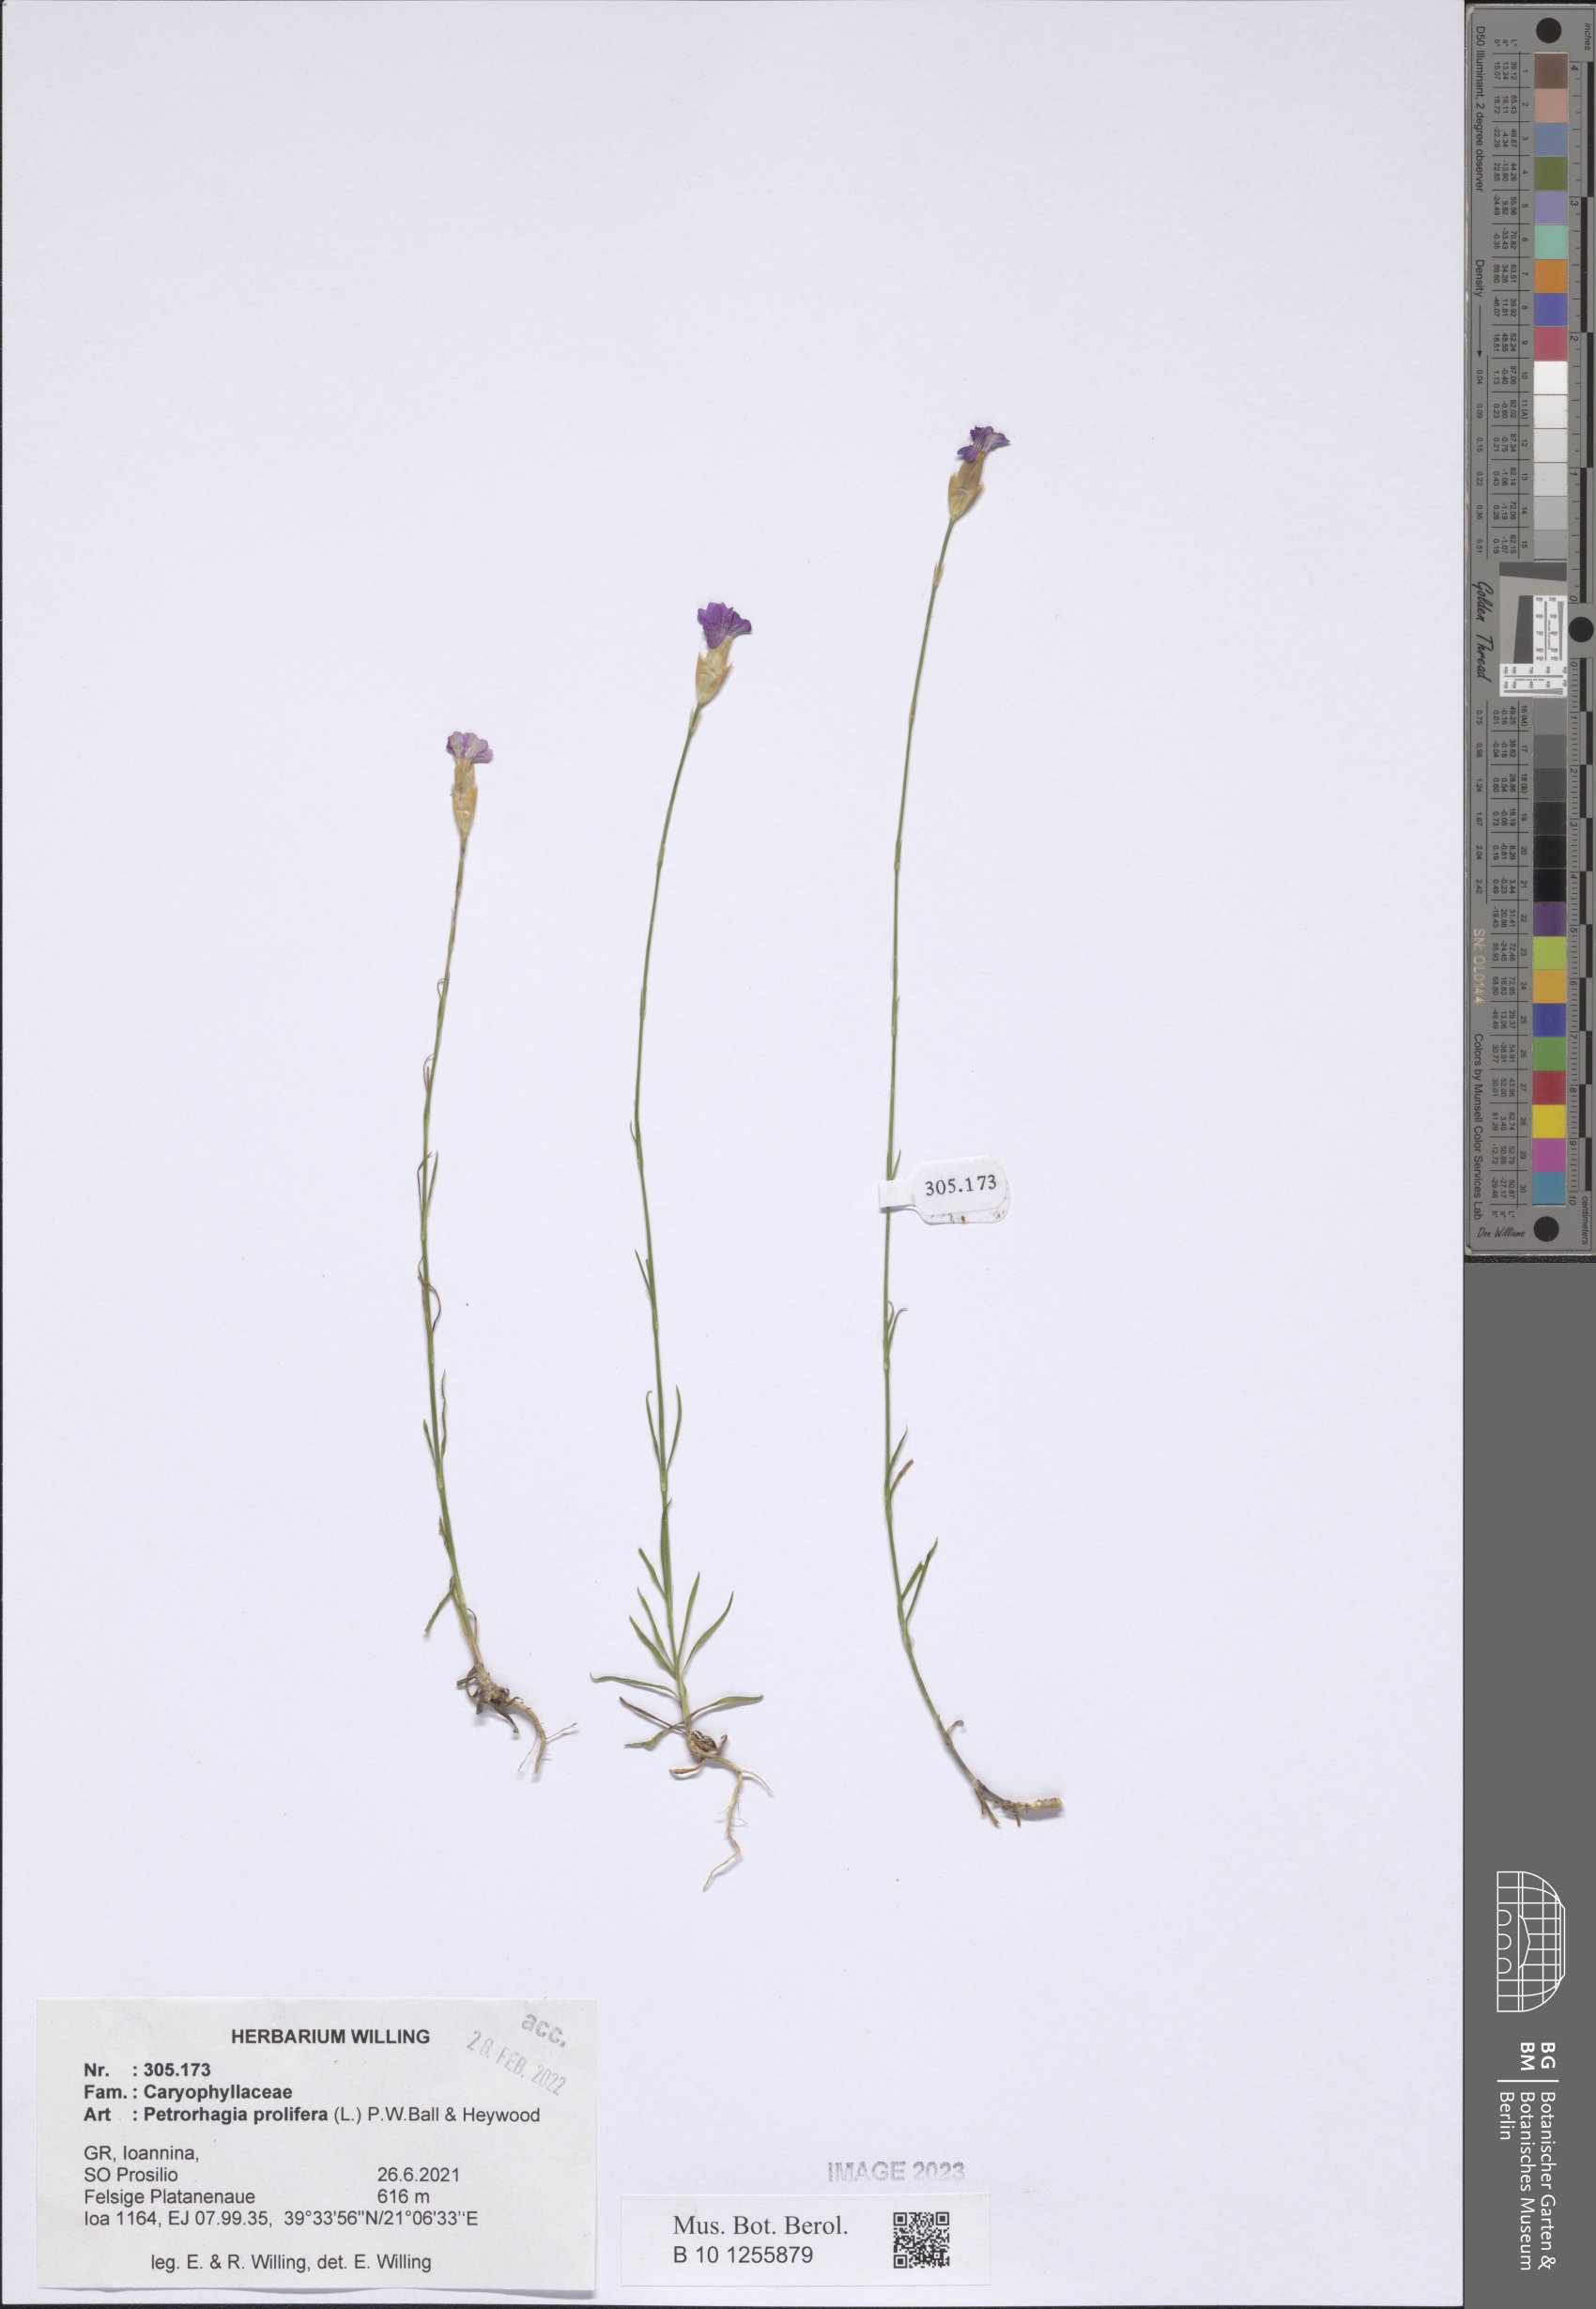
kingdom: Plantae
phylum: Tracheophyta
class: Magnoliopsida
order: Caryophyllales
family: Caryophyllaceae
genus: Petrorhagia
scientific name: Petrorhagia prolifera
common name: Proliferous pink
